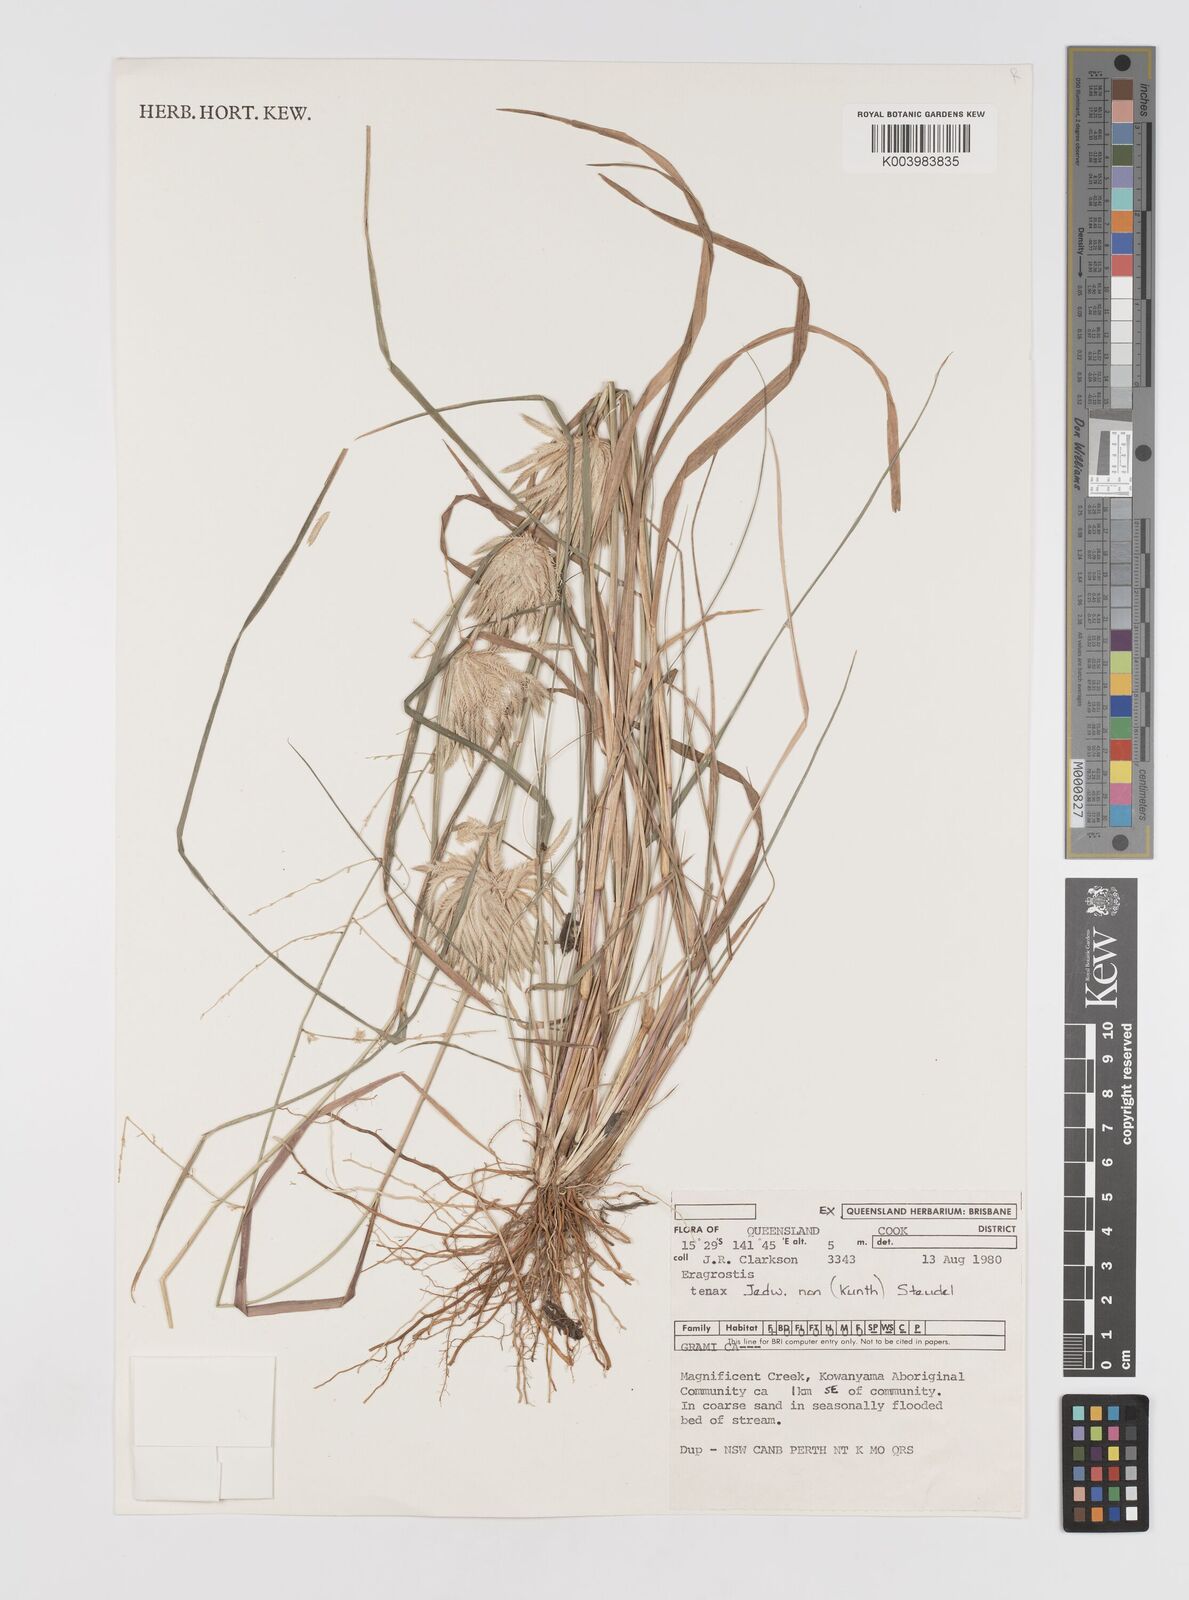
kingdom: Plantae
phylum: Tracheophyta
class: Liliopsida
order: Poales
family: Poaceae
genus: Eragrostis
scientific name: Eragrostis fallax
